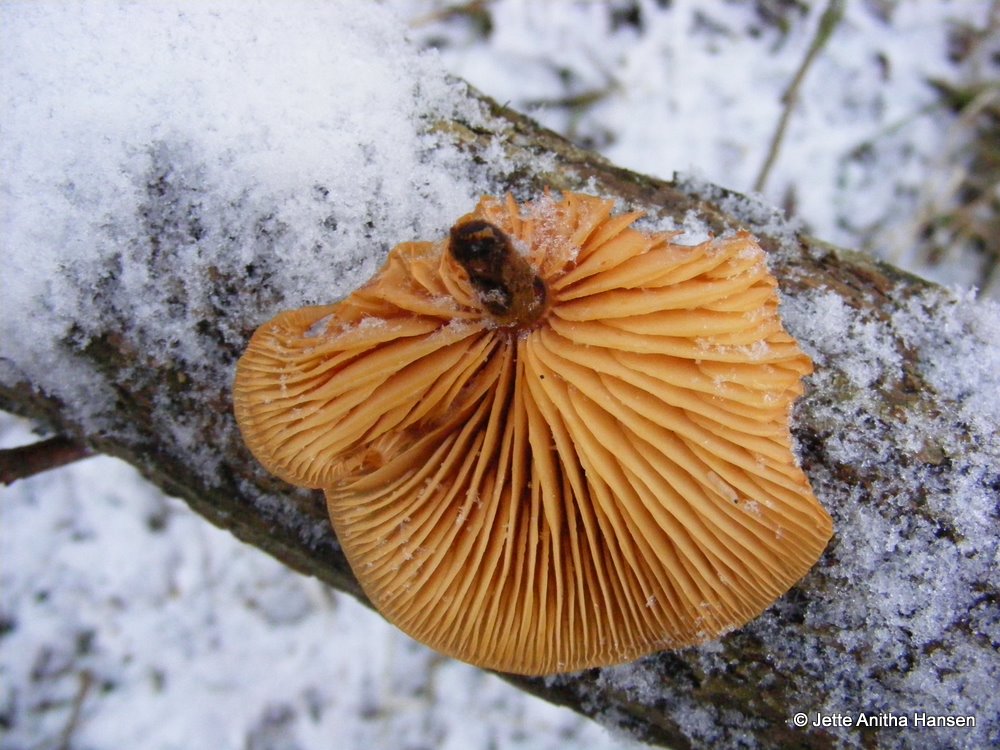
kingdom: Fungi
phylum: Basidiomycota
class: Agaricomycetes
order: Agaricales
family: Physalacriaceae
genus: Flammulina
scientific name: Flammulina elastica
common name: pile-fløjlsfod
